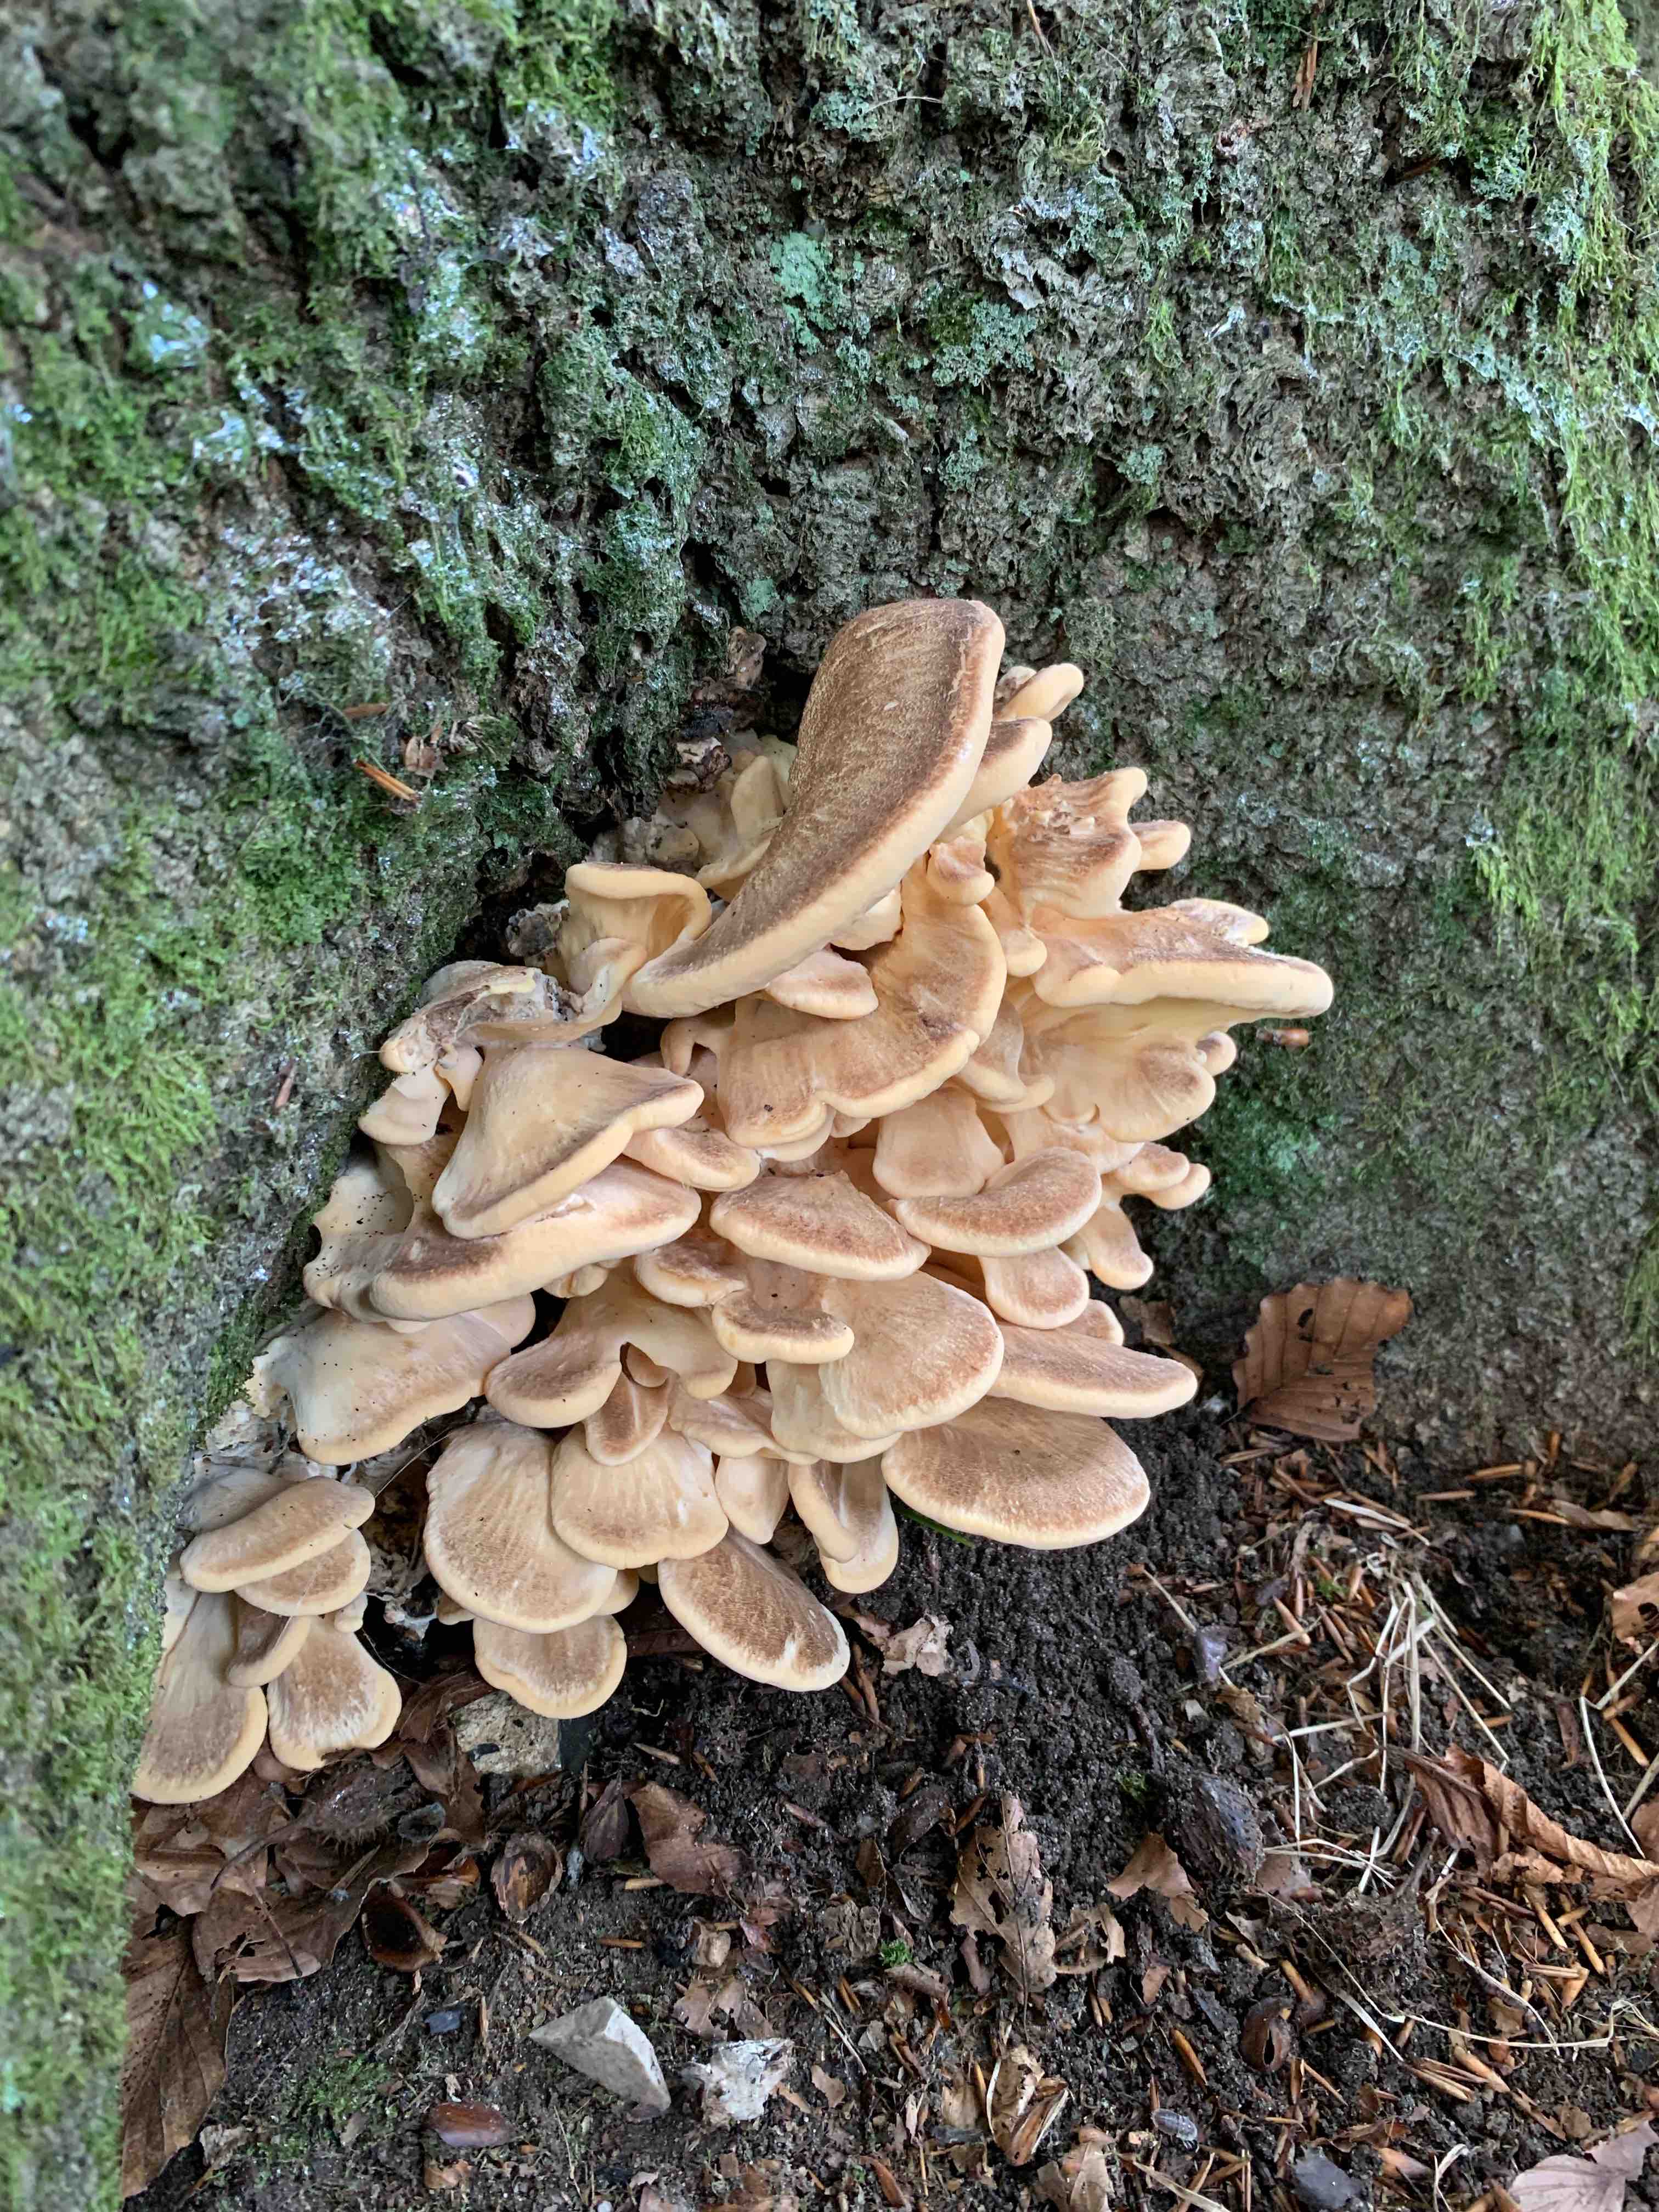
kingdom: Fungi
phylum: Basidiomycota
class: Agaricomycetes
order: Polyporales
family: Meripilaceae
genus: Meripilus
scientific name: Meripilus giganteus
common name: kæmpeporesvamp
